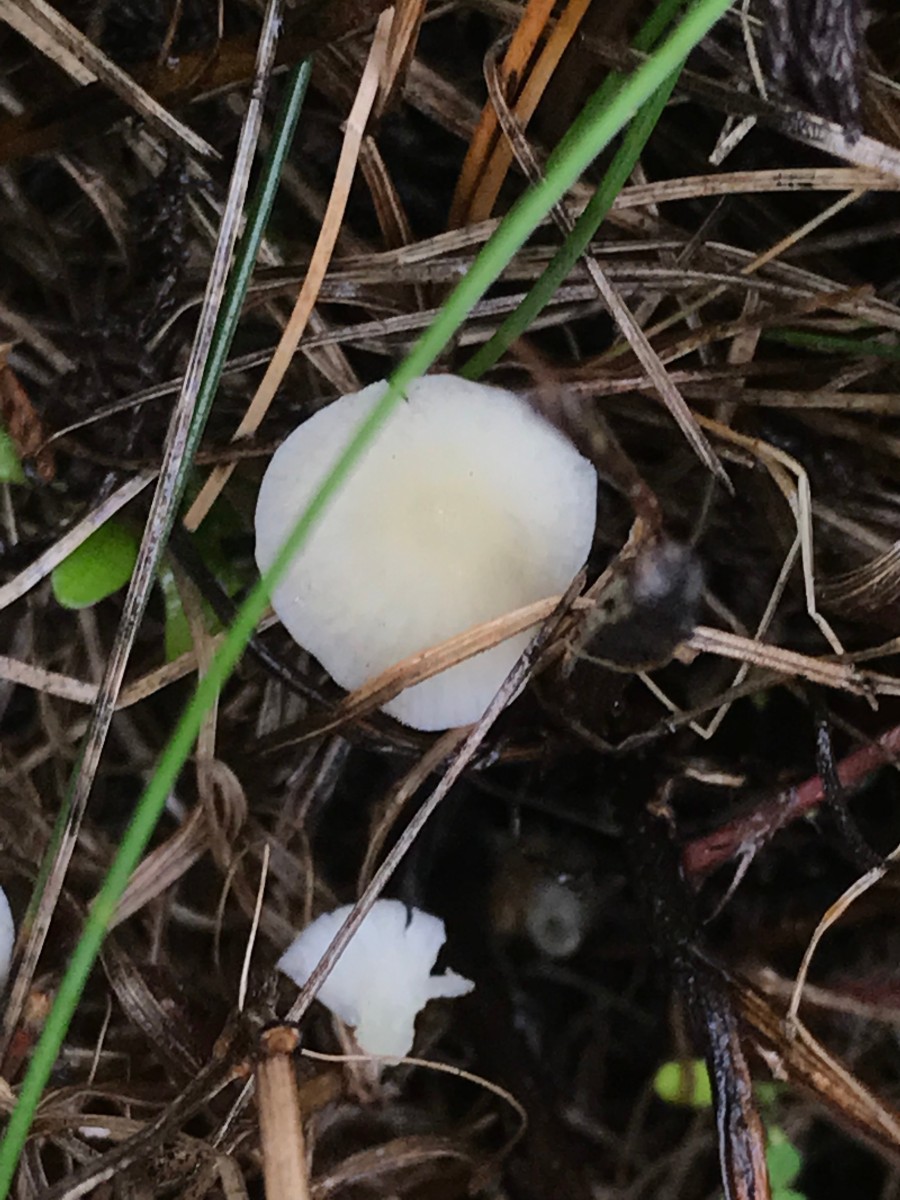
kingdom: Fungi
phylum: Basidiomycota
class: Agaricomycetes
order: Agaricales
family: Mycenaceae
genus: Atheniella
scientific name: Atheniella flavoalba
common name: gulhvid huesvamp
